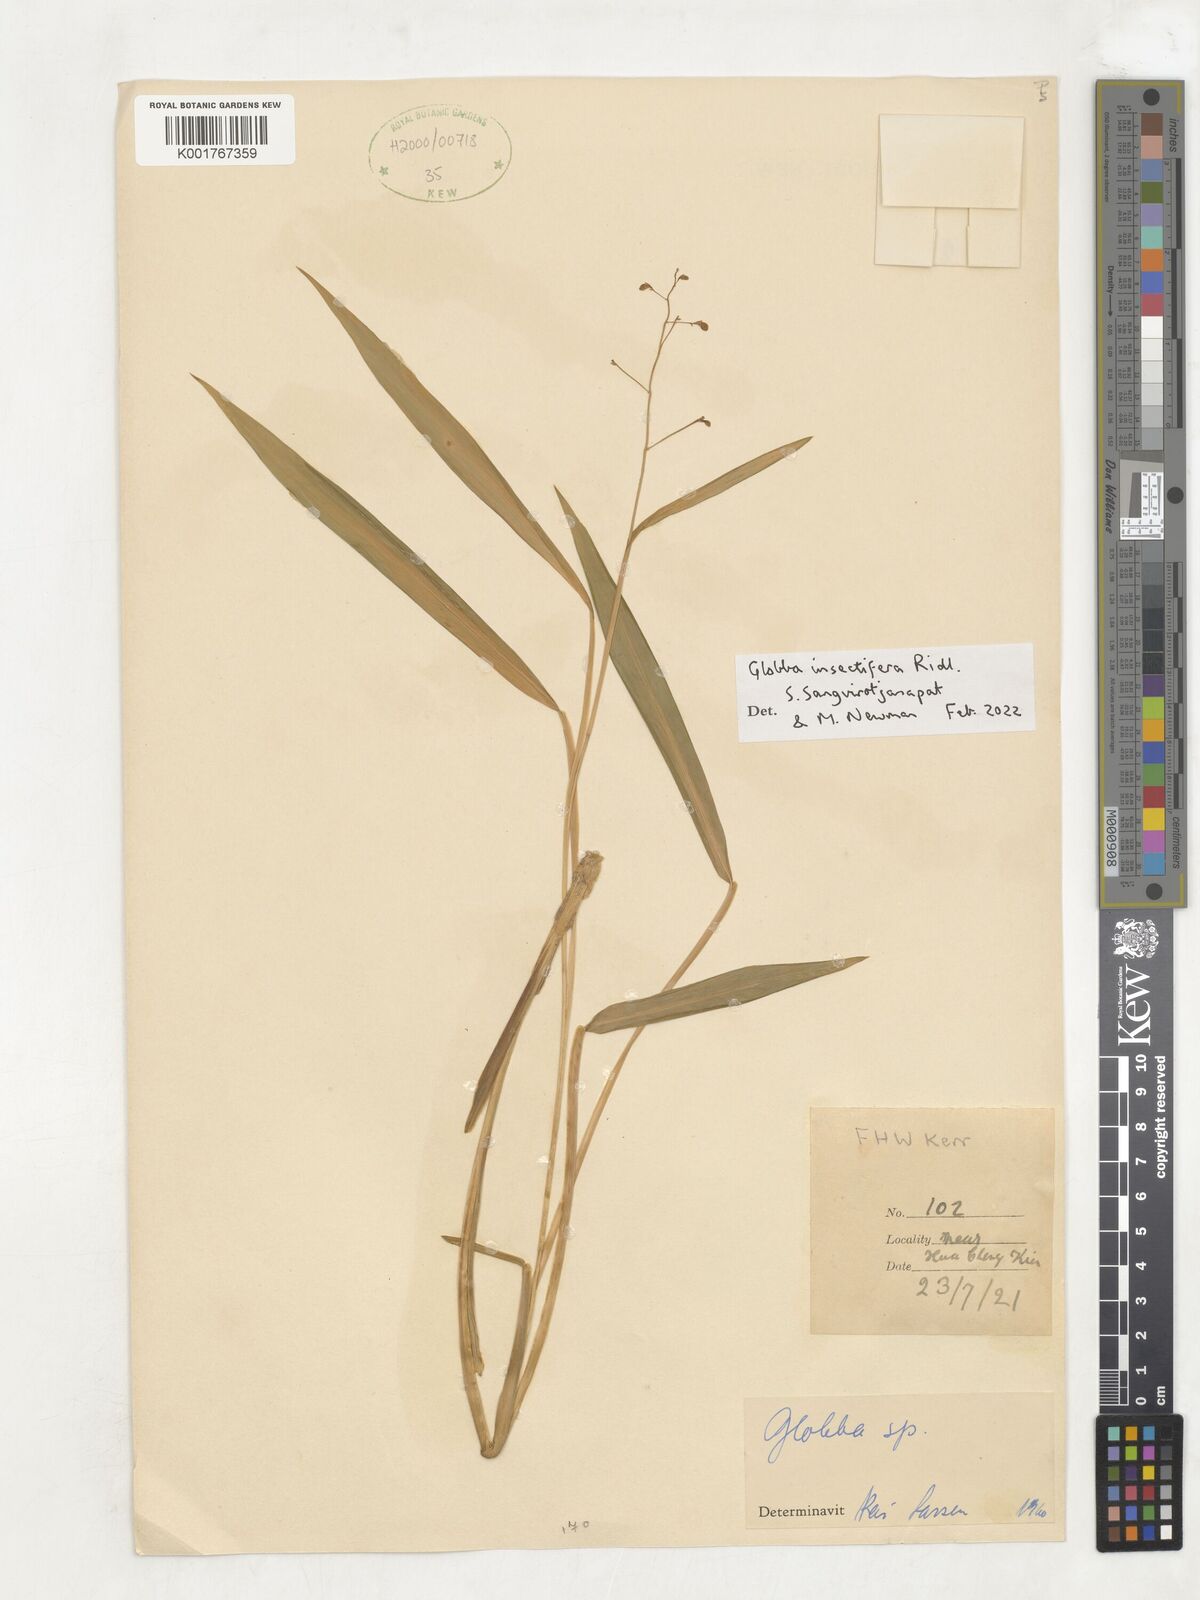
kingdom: Plantae
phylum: Tracheophyta
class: Liliopsida
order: Zingiberales
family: Zingiberaceae
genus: Globba
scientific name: Globba insectifera
